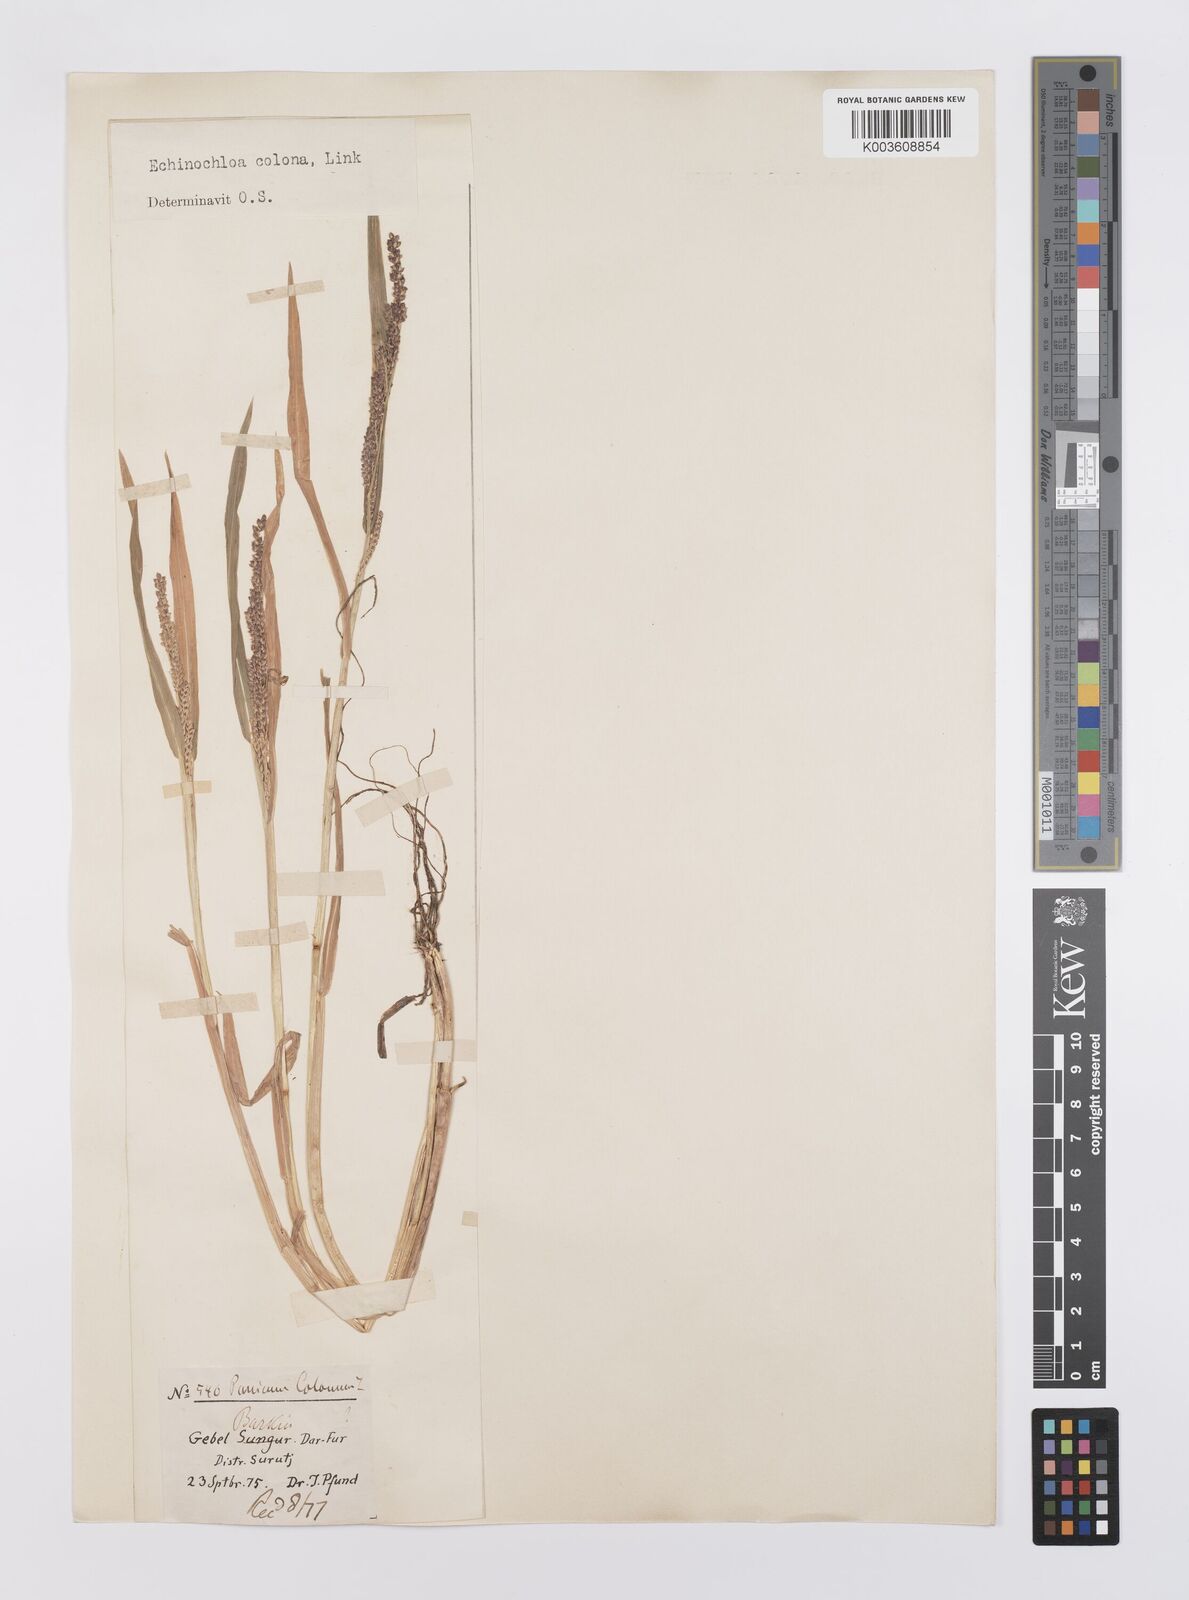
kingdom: Plantae
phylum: Tracheophyta
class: Liliopsida
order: Poales
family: Poaceae
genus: Echinochloa
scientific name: Echinochloa colonum
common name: Jungle rice
